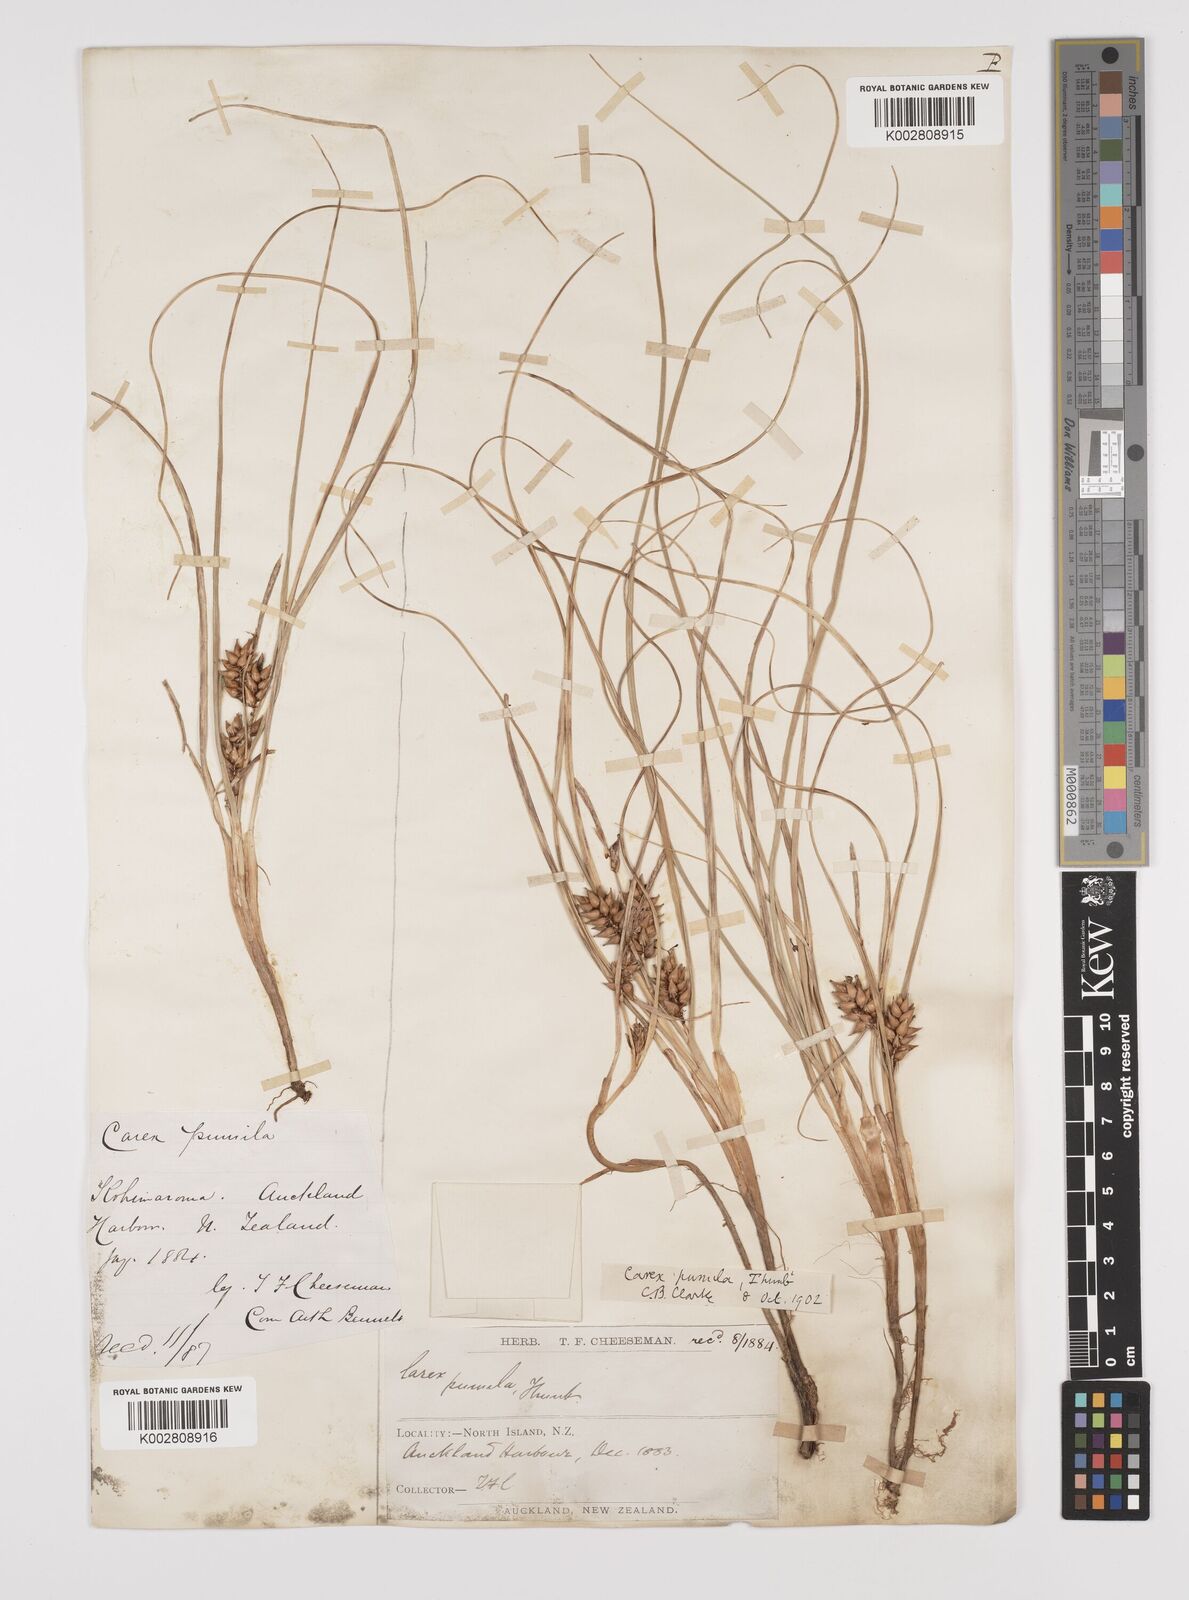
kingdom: Plantae
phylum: Tracheophyta
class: Liliopsida
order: Poales
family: Cyperaceae
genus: Carex
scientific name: Carex pumila
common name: Dwarf sedge
